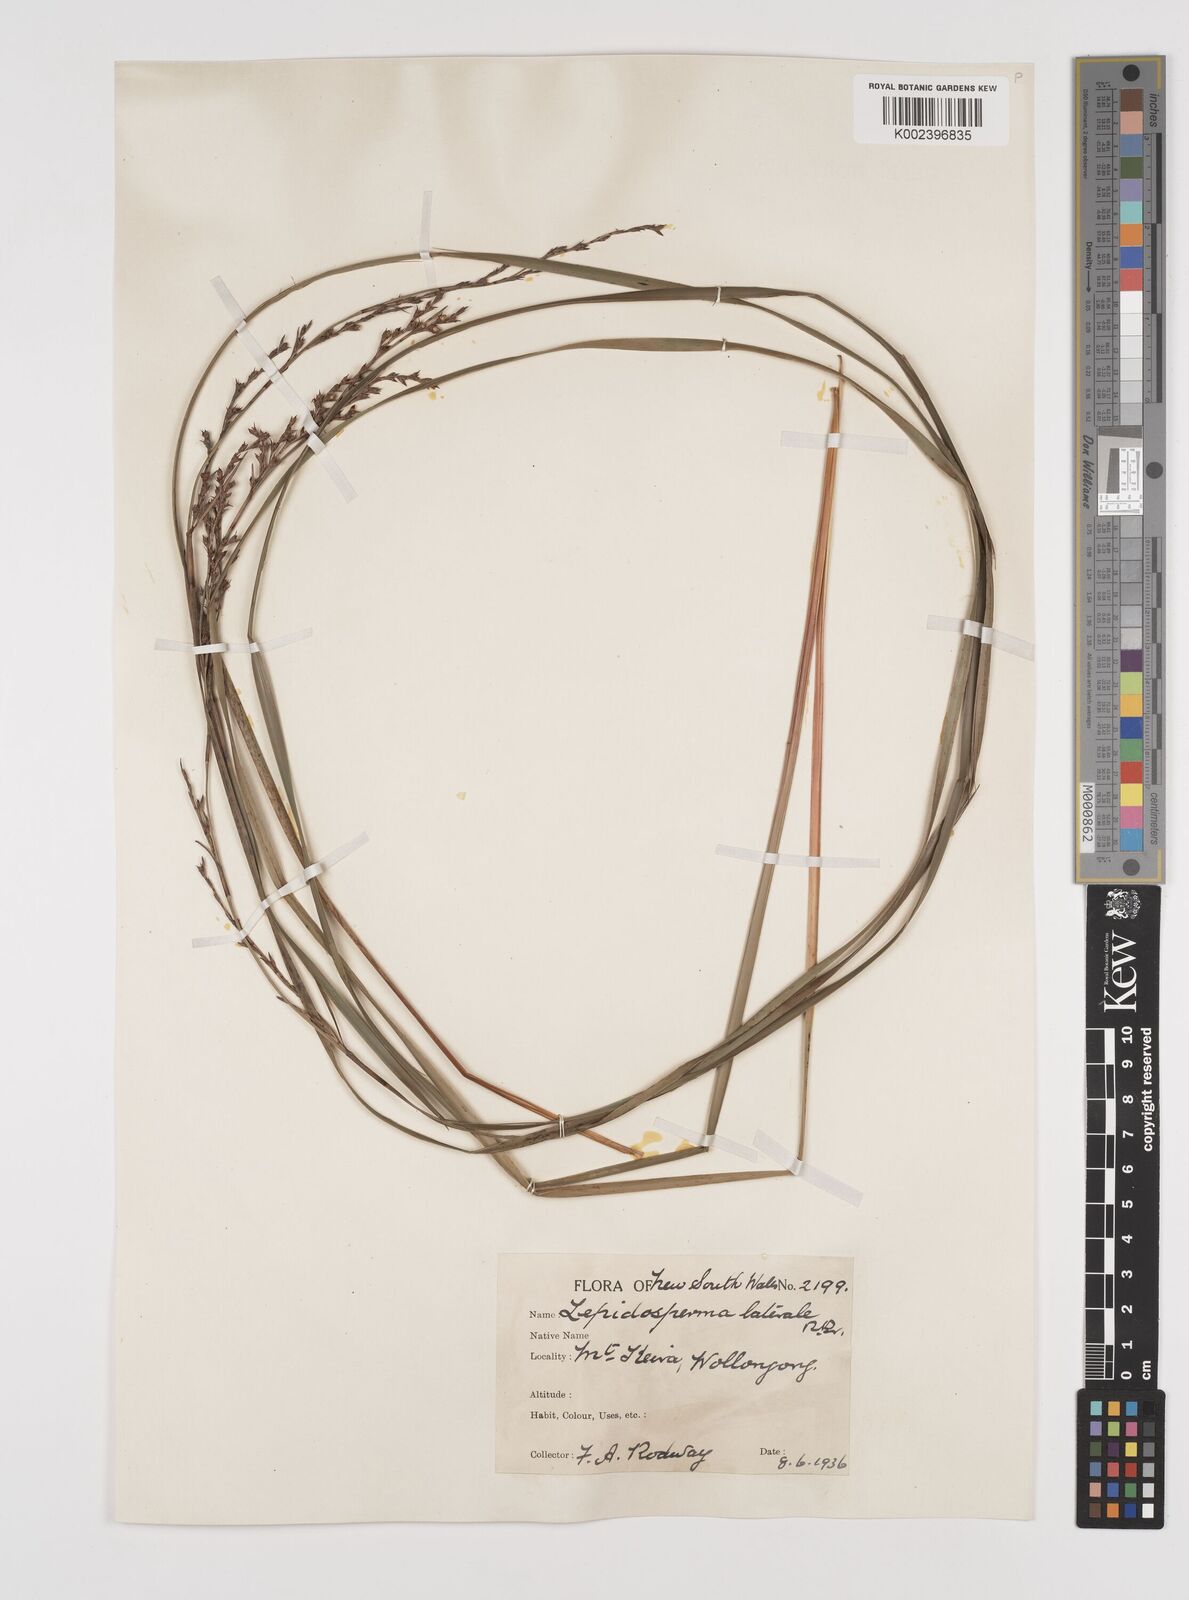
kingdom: Plantae
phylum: Tracheophyta
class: Liliopsida
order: Poales
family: Cyperaceae
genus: Lepidosperma
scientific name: Lepidosperma laterale
